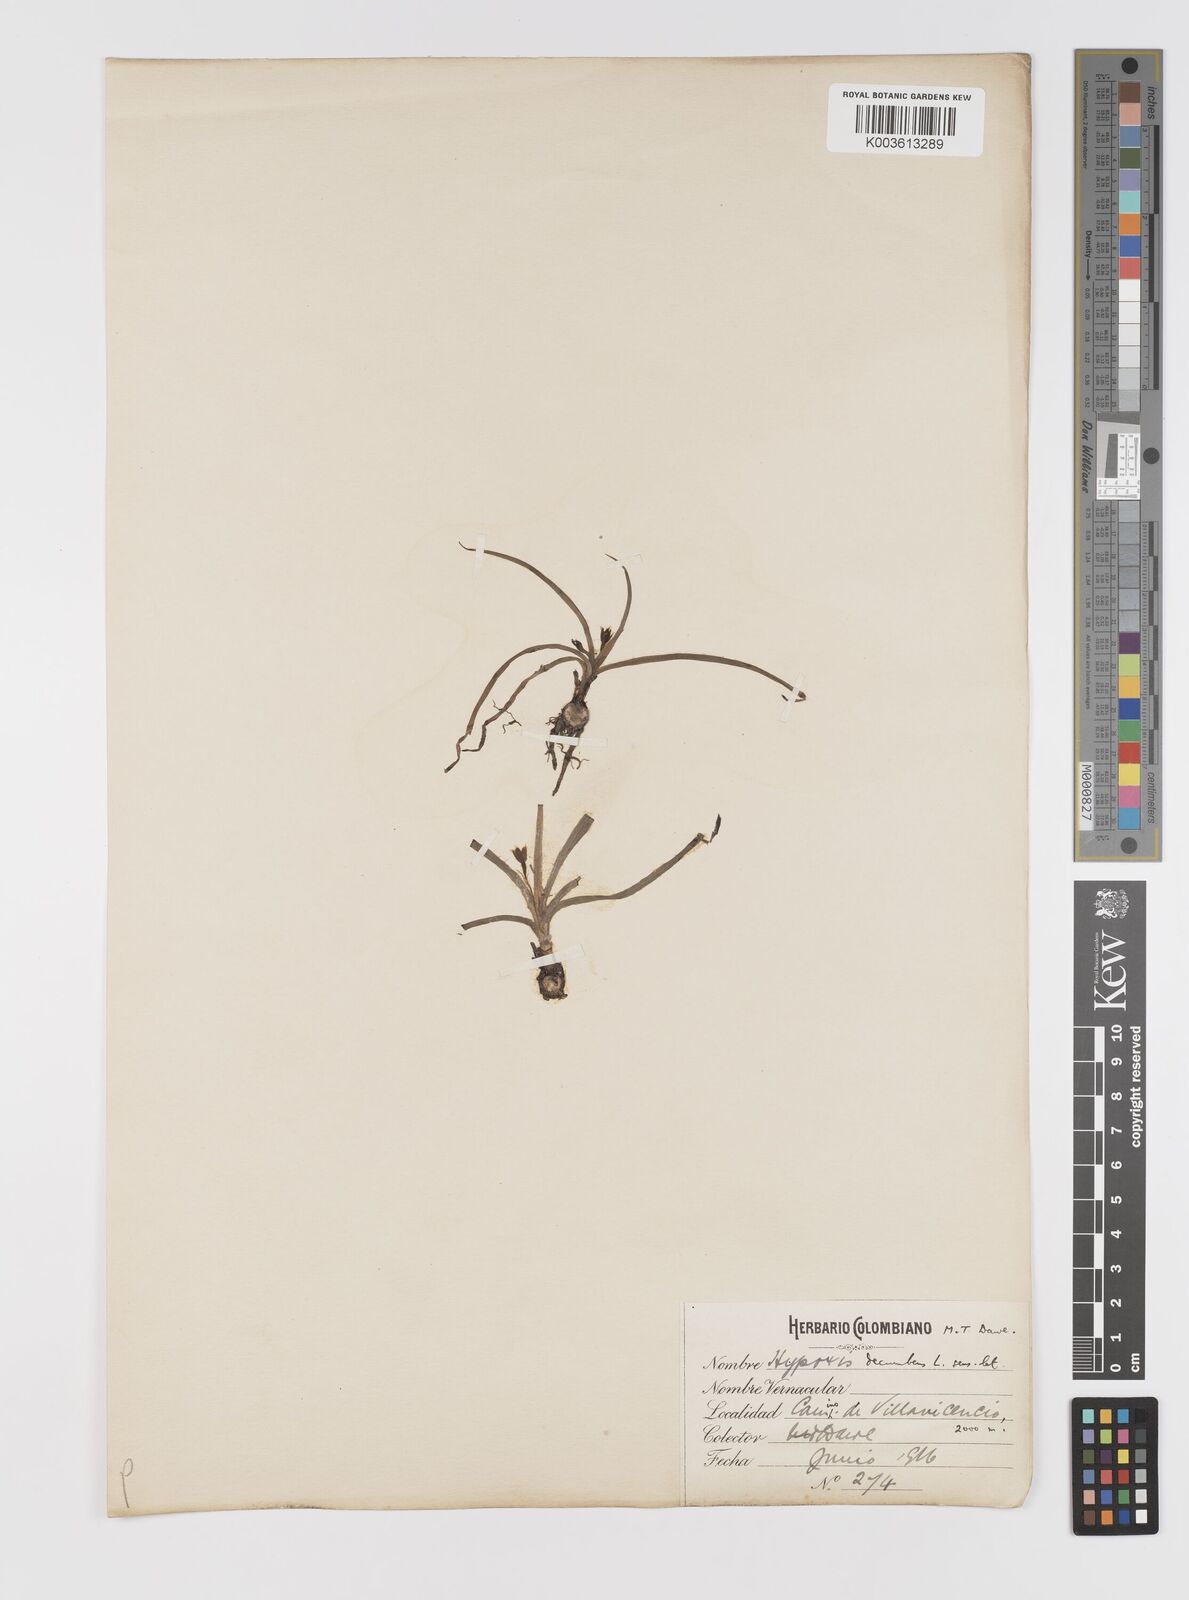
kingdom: Plantae
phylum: Tracheophyta
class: Liliopsida
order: Asparagales
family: Hypoxidaceae
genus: Hypoxis
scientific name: Hypoxis decumbens
